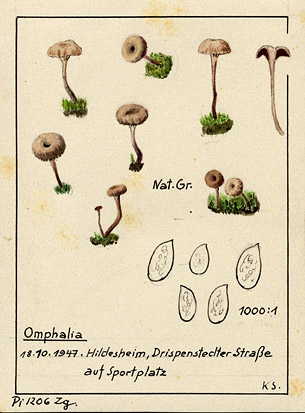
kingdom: Fungi
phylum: Basidiomycota
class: Agaricomycetes
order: Agaricales
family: Tricholomataceae
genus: Omphalina
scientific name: Omphalina
